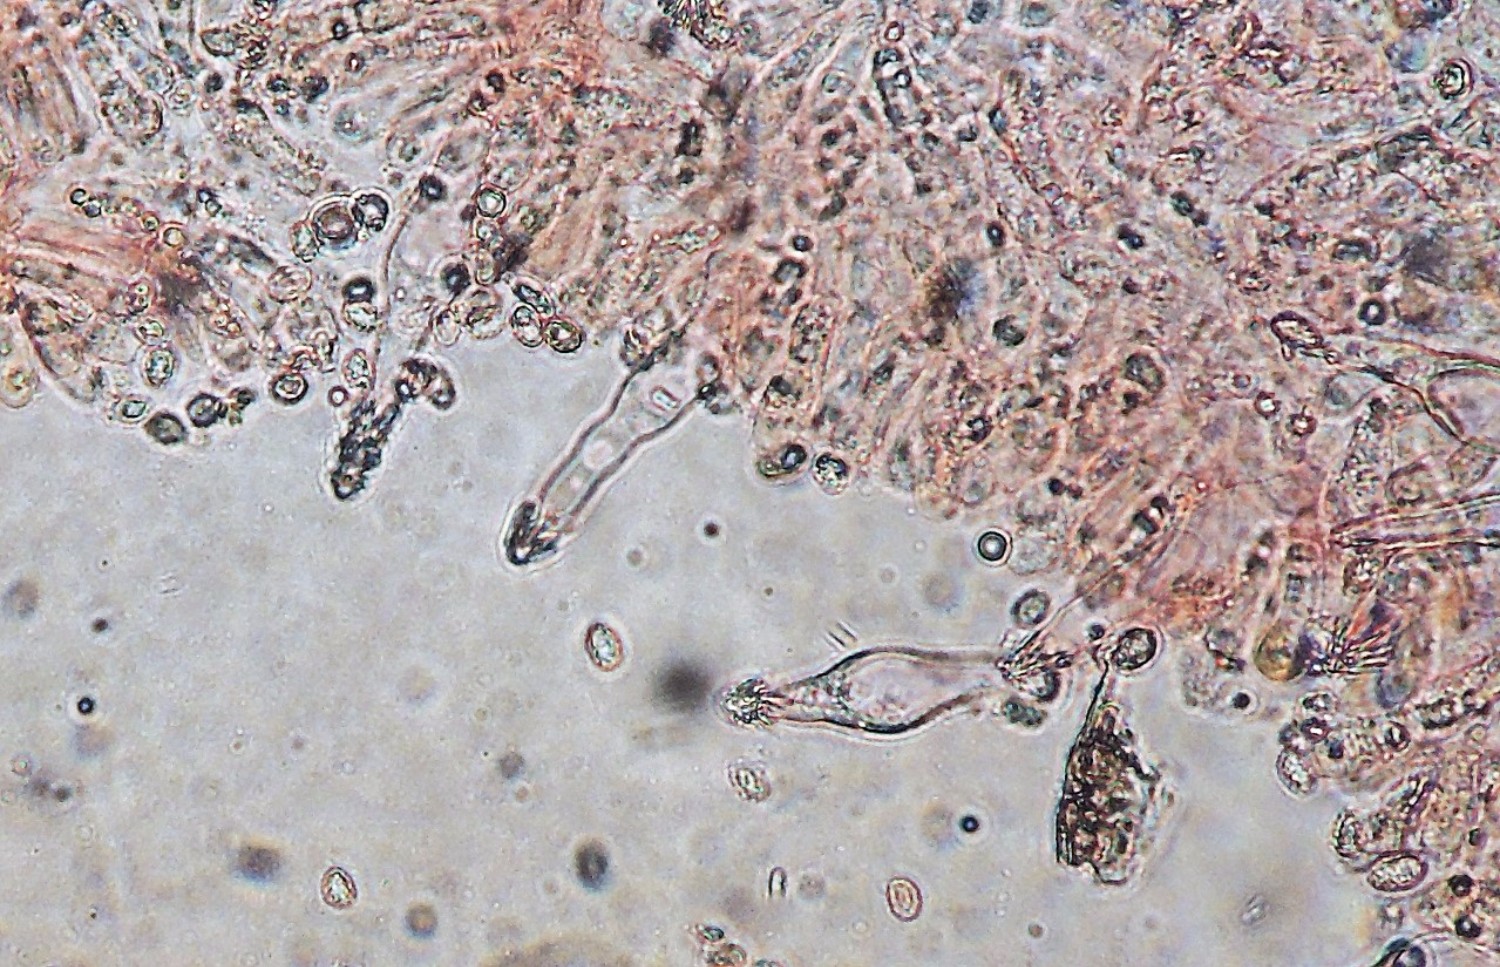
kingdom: Fungi
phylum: Basidiomycota
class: Agaricomycetes
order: Agaricales
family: Tricholomataceae
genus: Melanoleuca
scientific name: Melanoleuca polioleuca
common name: hvidbladet munkehat
